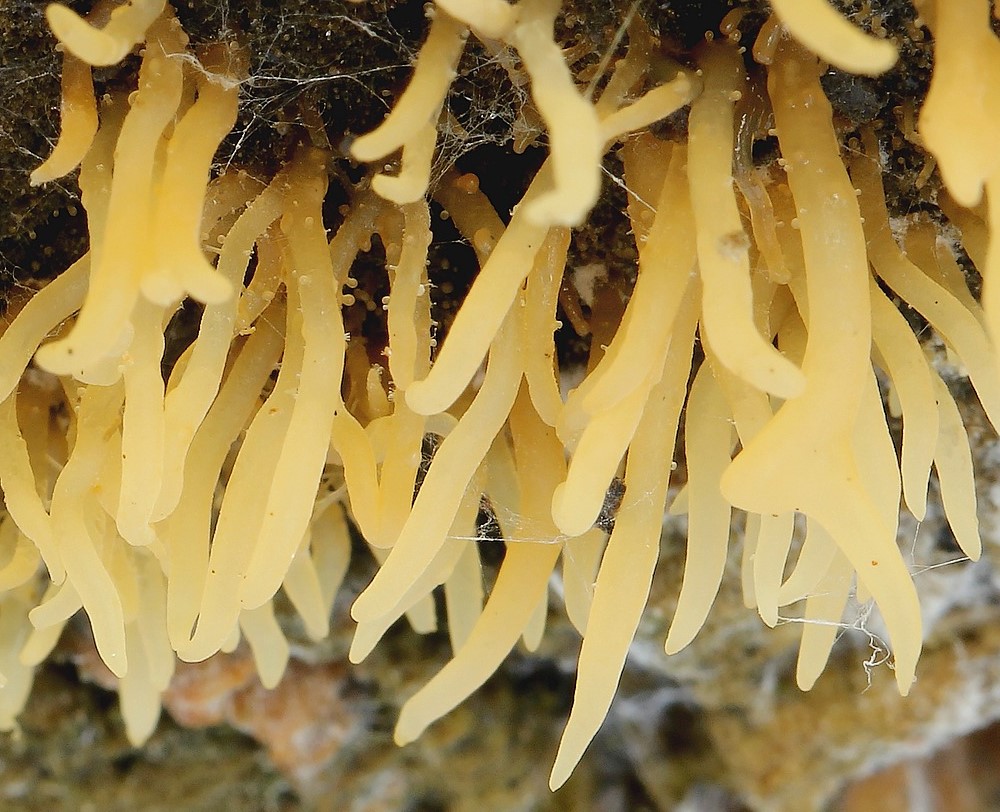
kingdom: Fungi
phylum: Basidiomycota
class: Dacrymycetes
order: Dacrymycetales
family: Dacrymycetaceae
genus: Calocera
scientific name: Calocera cornea
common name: liden guldgaffel
